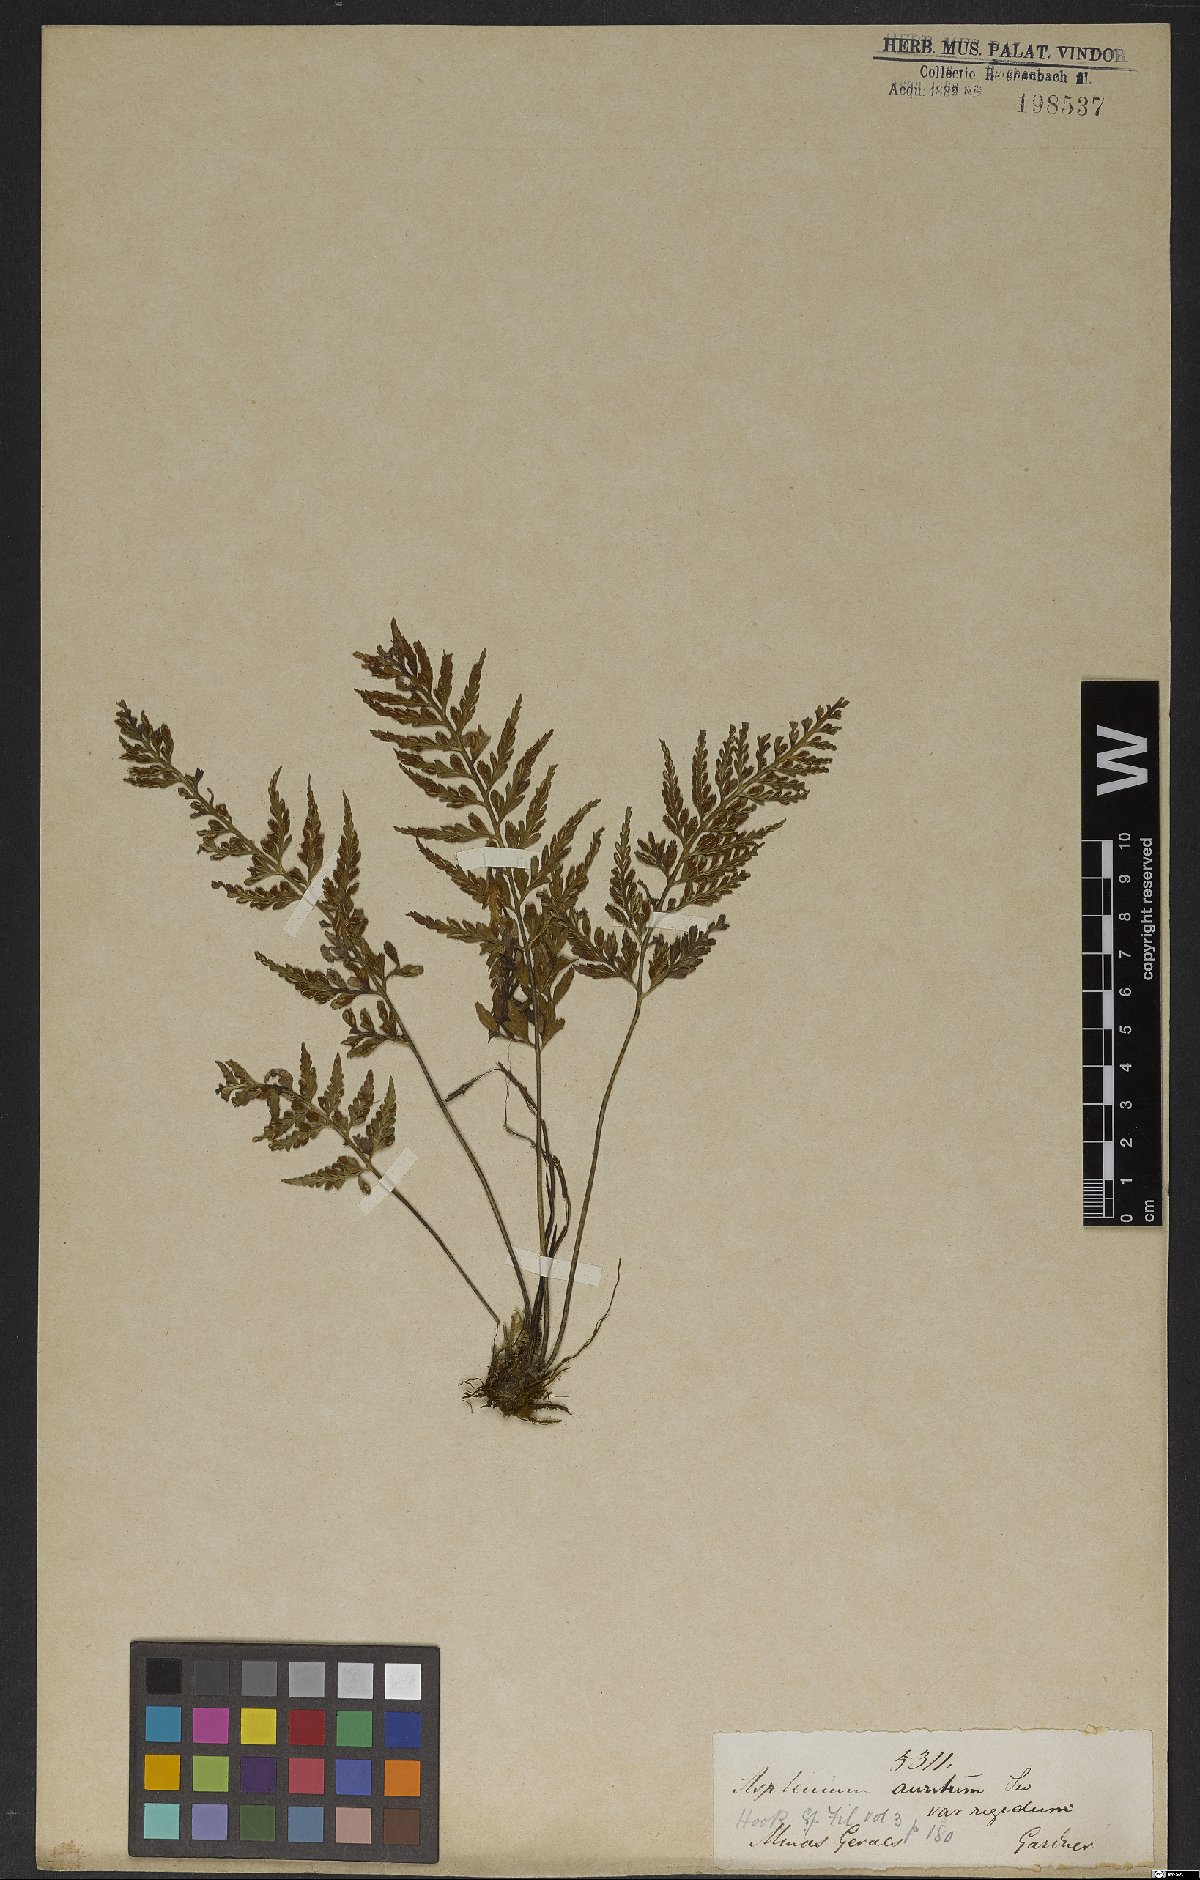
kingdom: Plantae
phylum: Tracheophyta
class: Polypodiopsida
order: Polypodiales
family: Aspleniaceae
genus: Asplenium
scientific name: Asplenium auritum
